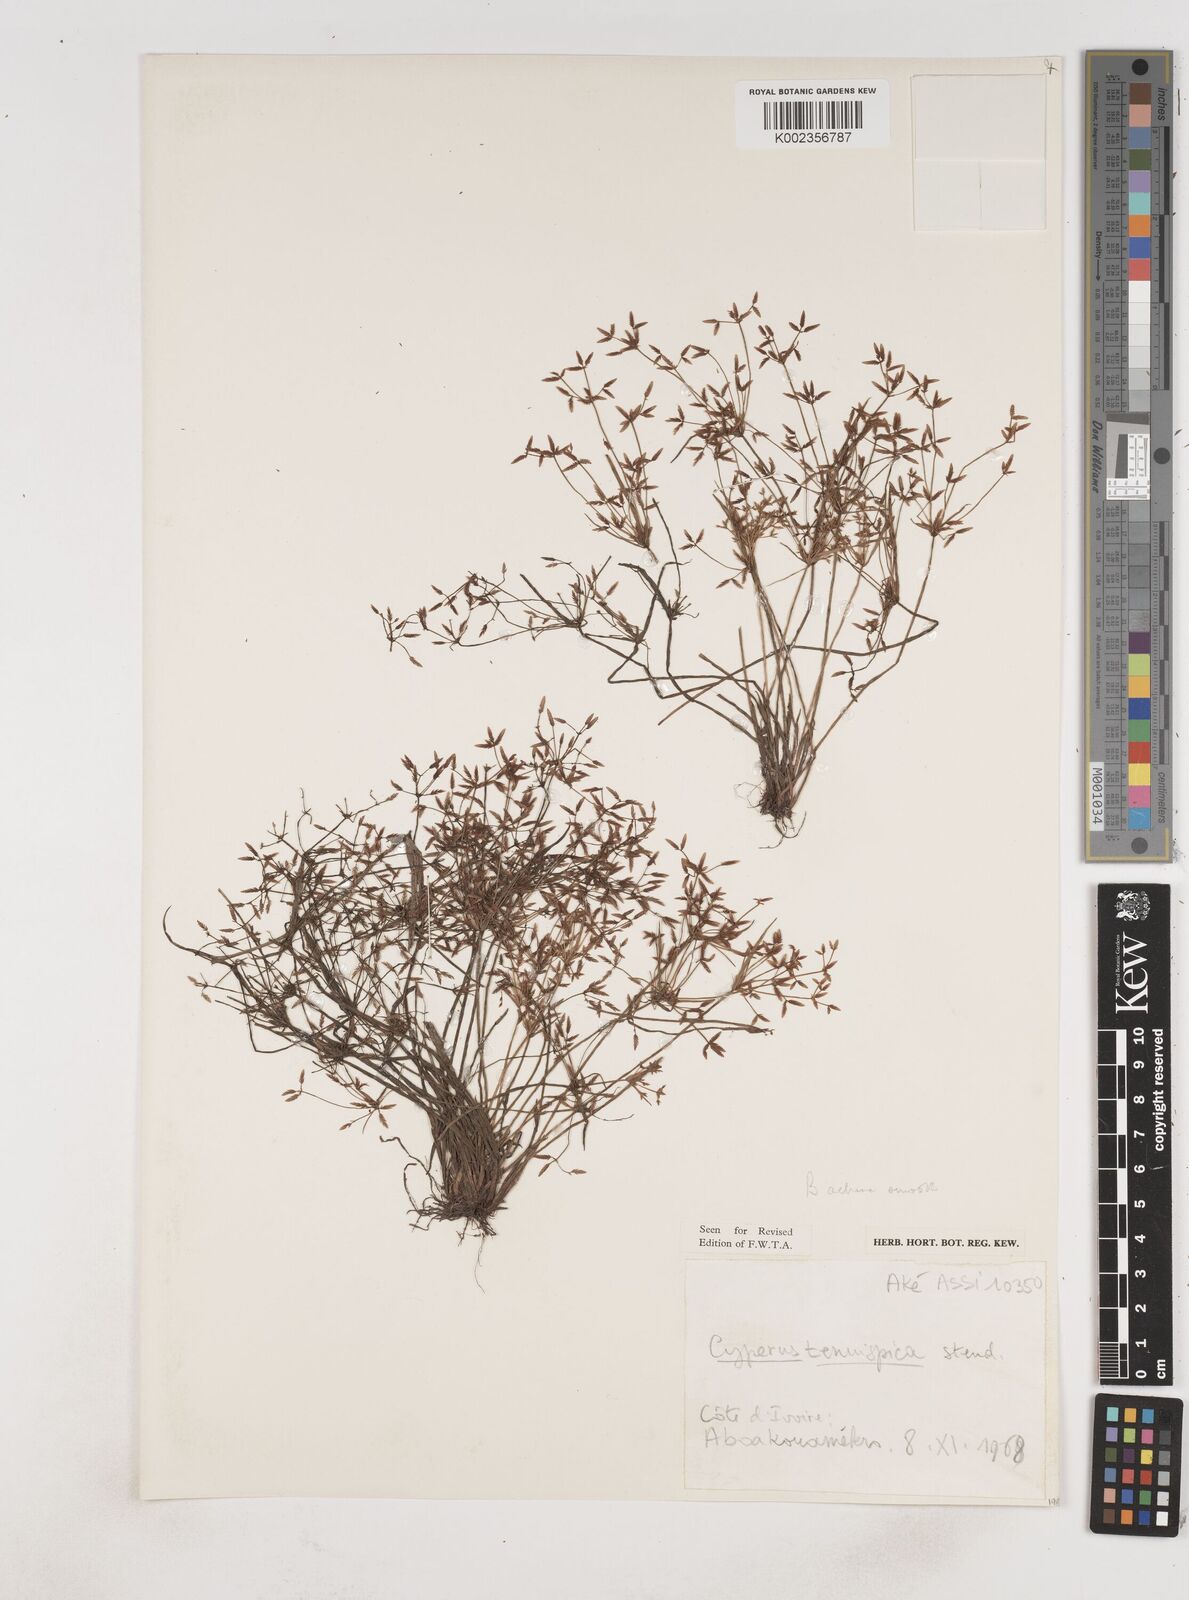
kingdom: Plantae
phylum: Tracheophyta
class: Liliopsida
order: Poales
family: Cyperaceae
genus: Cyperus
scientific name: Cyperus tenuispica
